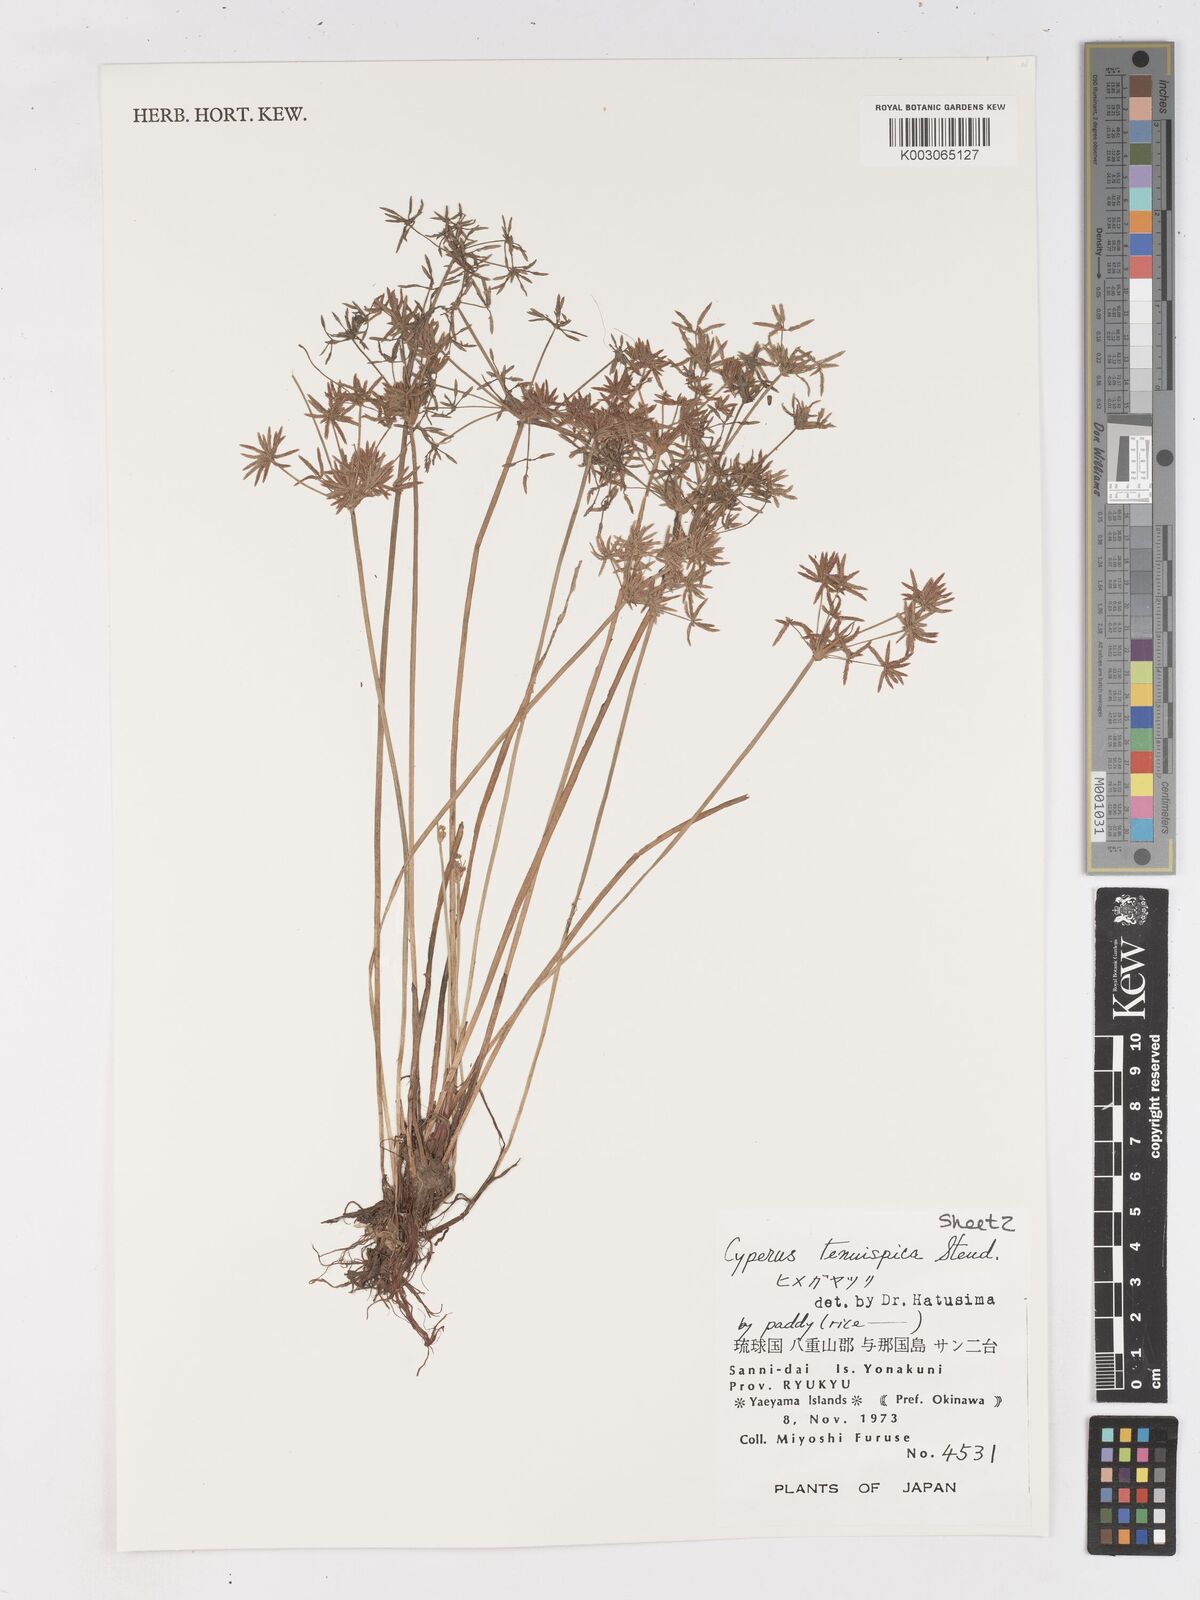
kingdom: Plantae
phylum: Tracheophyta
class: Liliopsida
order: Poales
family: Cyperaceae
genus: Cyperus
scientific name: Cyperus tenuispica
